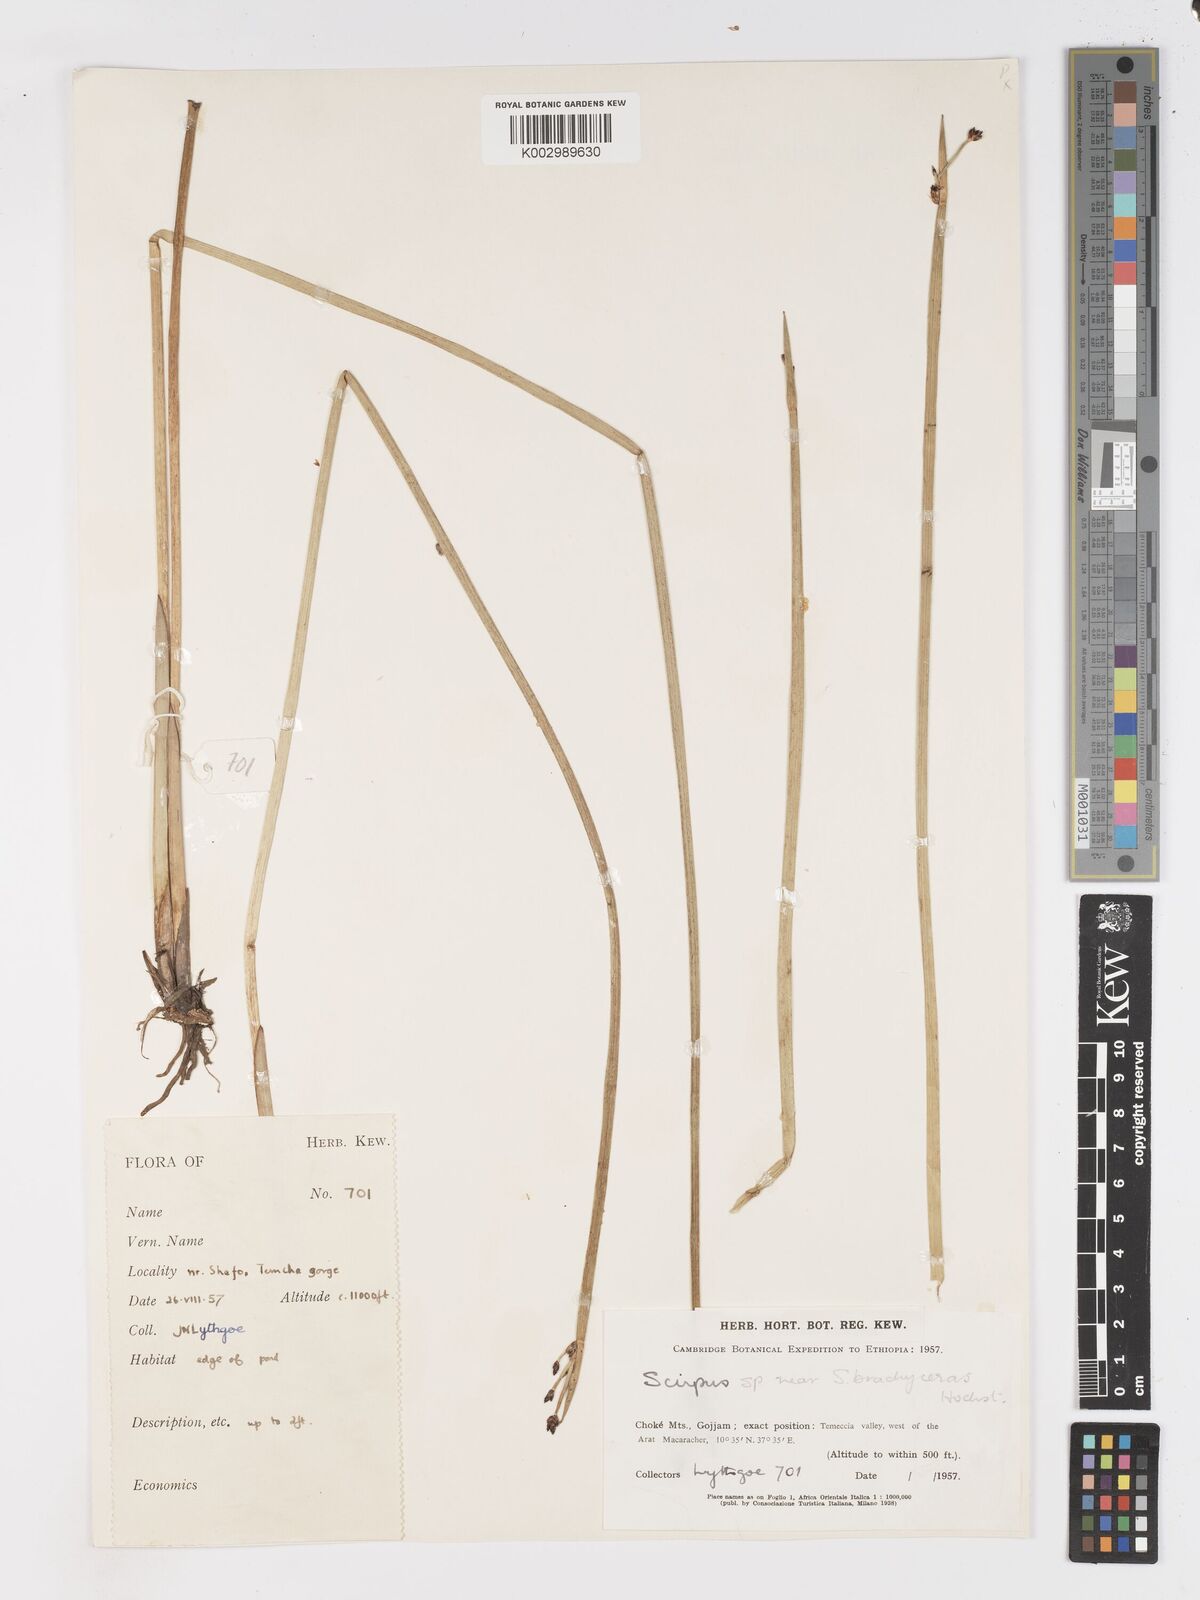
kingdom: Plantae
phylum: Tracheophyta
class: Liliopsida
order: Poales
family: Cyperaceae
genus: Schoenoplectiella
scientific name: Schoenoplectiella brachyceras
